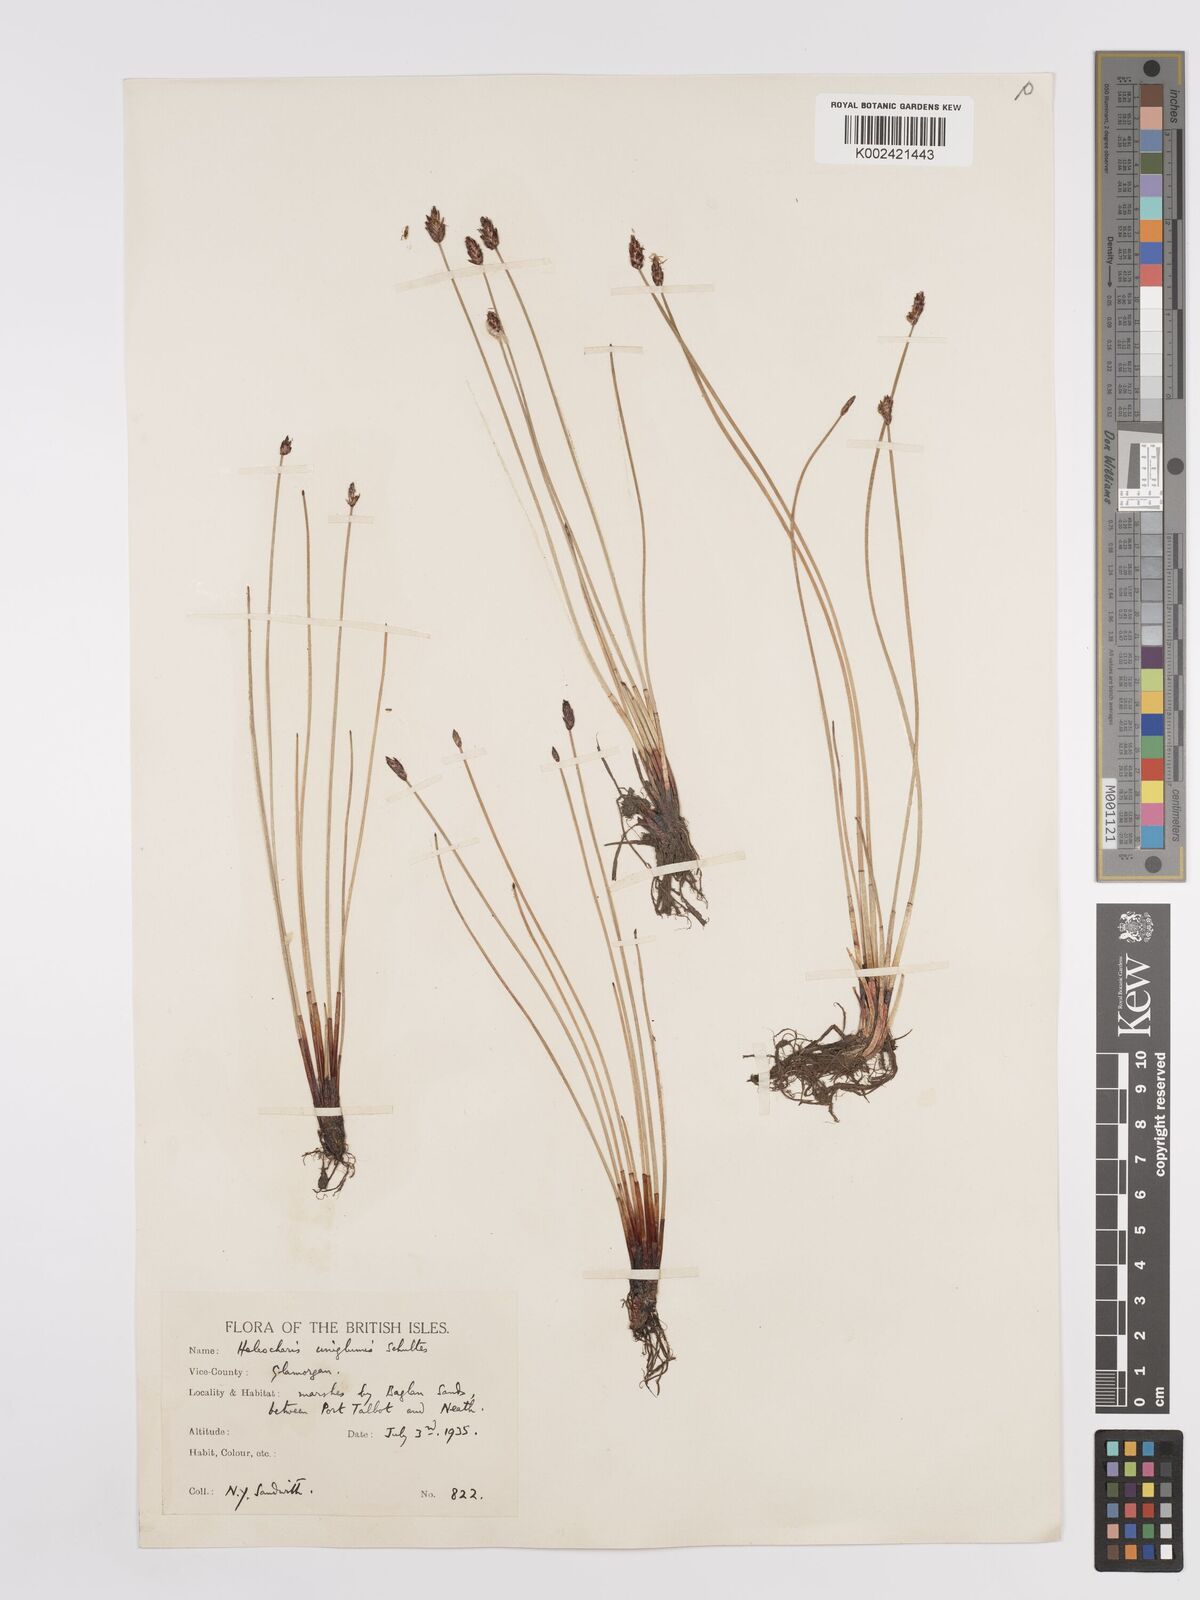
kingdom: Plantae
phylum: Tracheophyta
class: Liliopsida
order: Poales
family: Cyperaceae
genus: Eleocharis
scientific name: Eleocharis uniglumis
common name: Slender spike-rush
